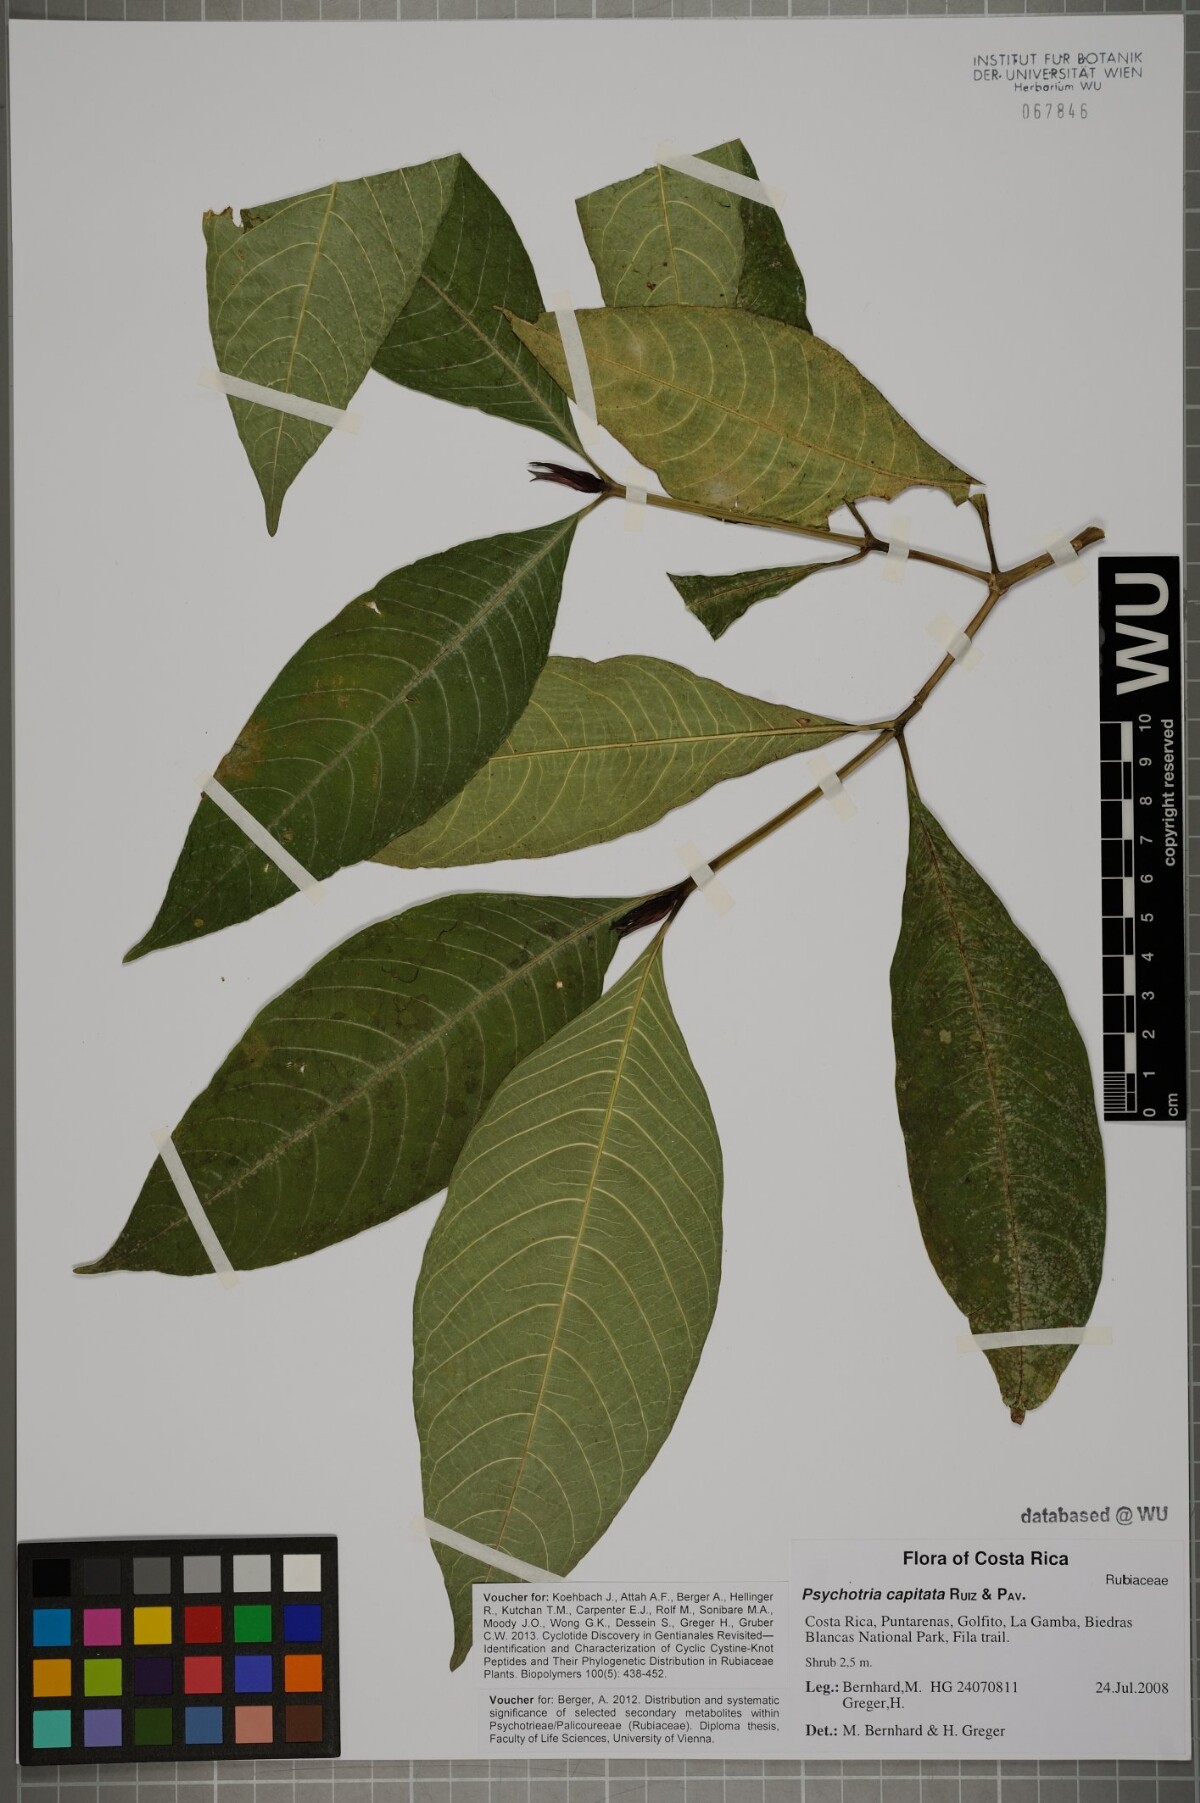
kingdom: Plantae
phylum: Tracheophyta
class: Magnoliopsida
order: Gentianales
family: Rubiaceae
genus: Palicourea
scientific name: Palicourea violacea
